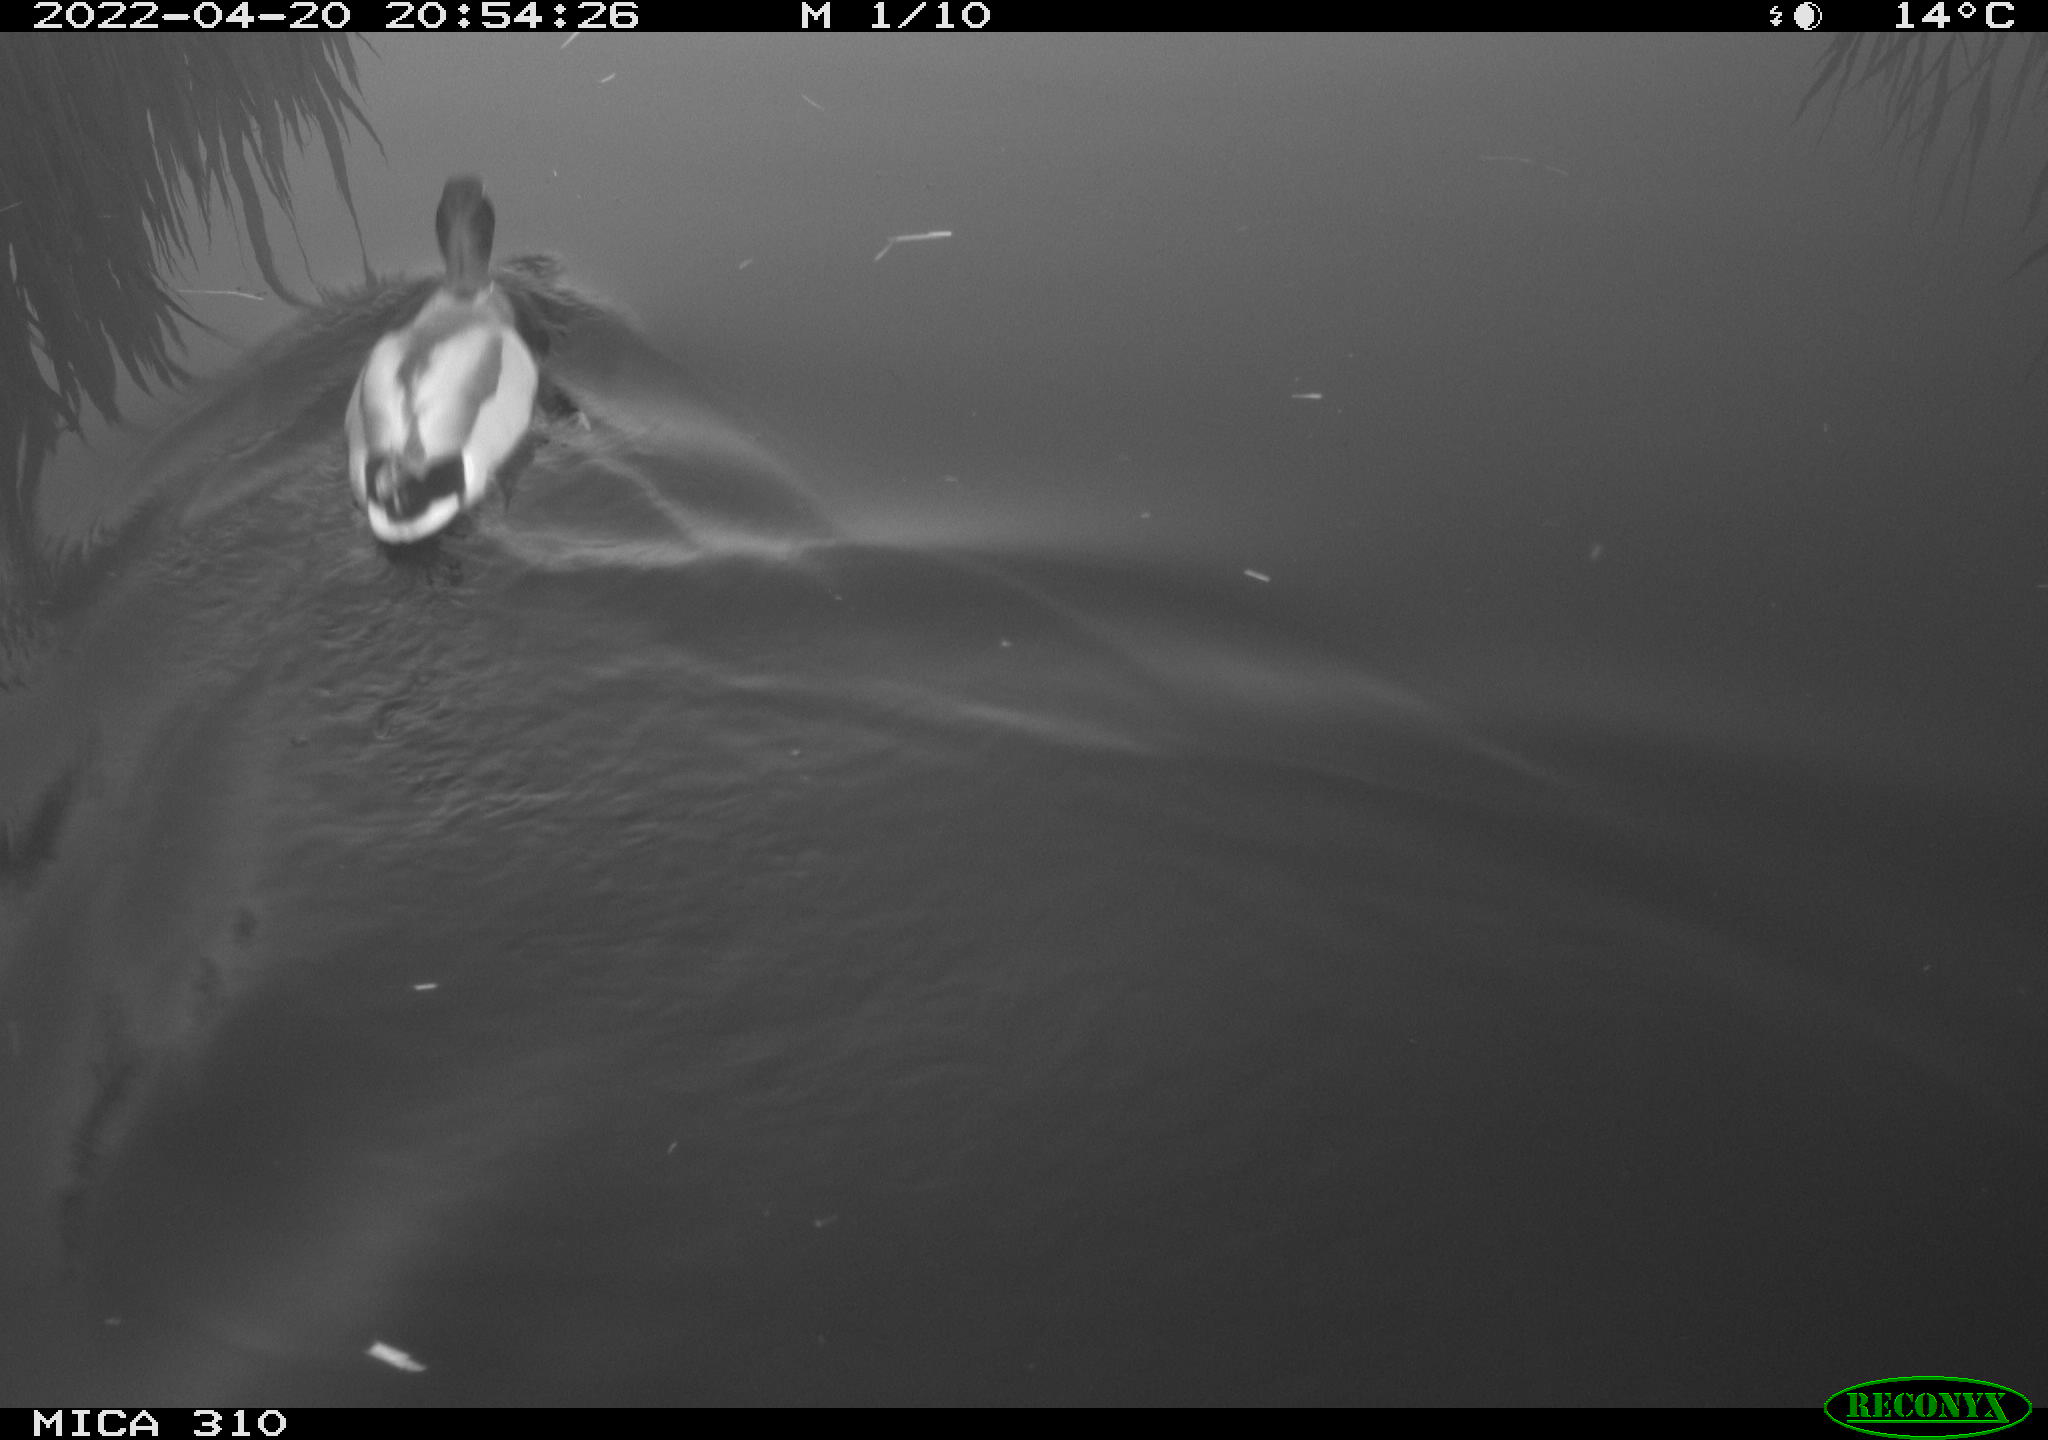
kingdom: Animalia
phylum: Chordata
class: Aves
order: Anseriformes
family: Anatidae
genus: Anas
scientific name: Anas platyrhynchos
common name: Mallard
